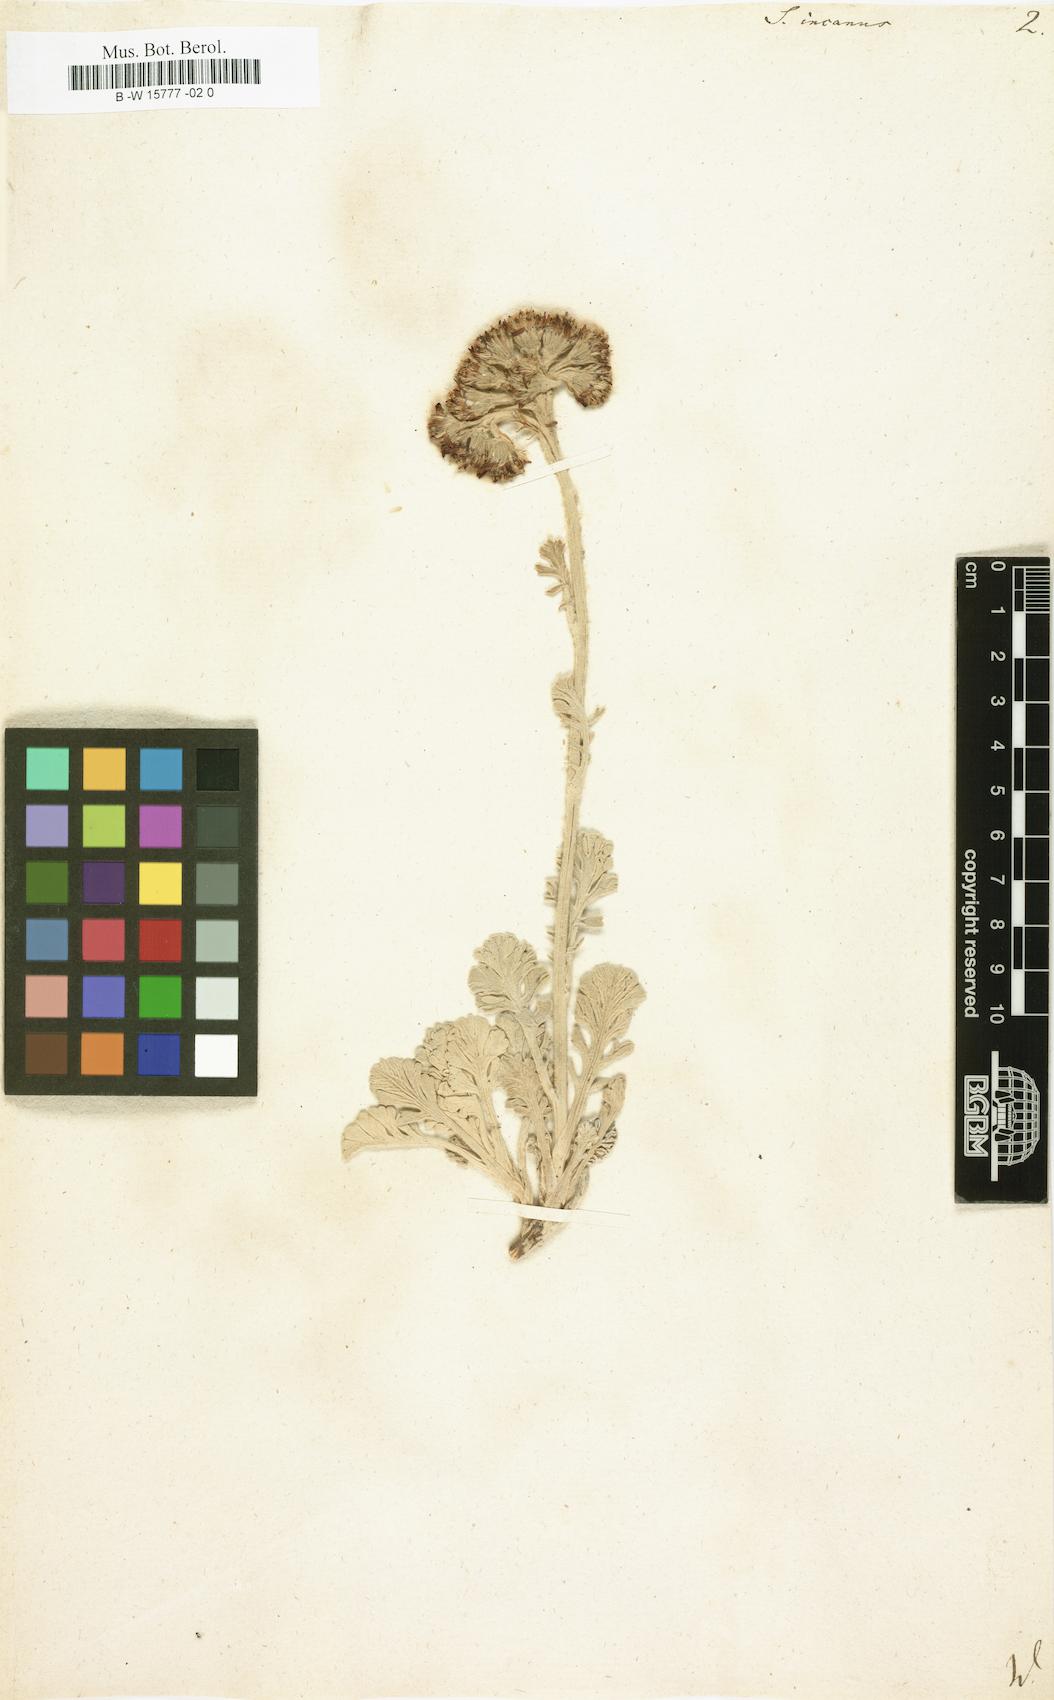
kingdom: Plantae
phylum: Tracheophyta
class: Magnoliopsida
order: Asterales
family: Asteraceae
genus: Jacobaea
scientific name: Jacobaea incana
